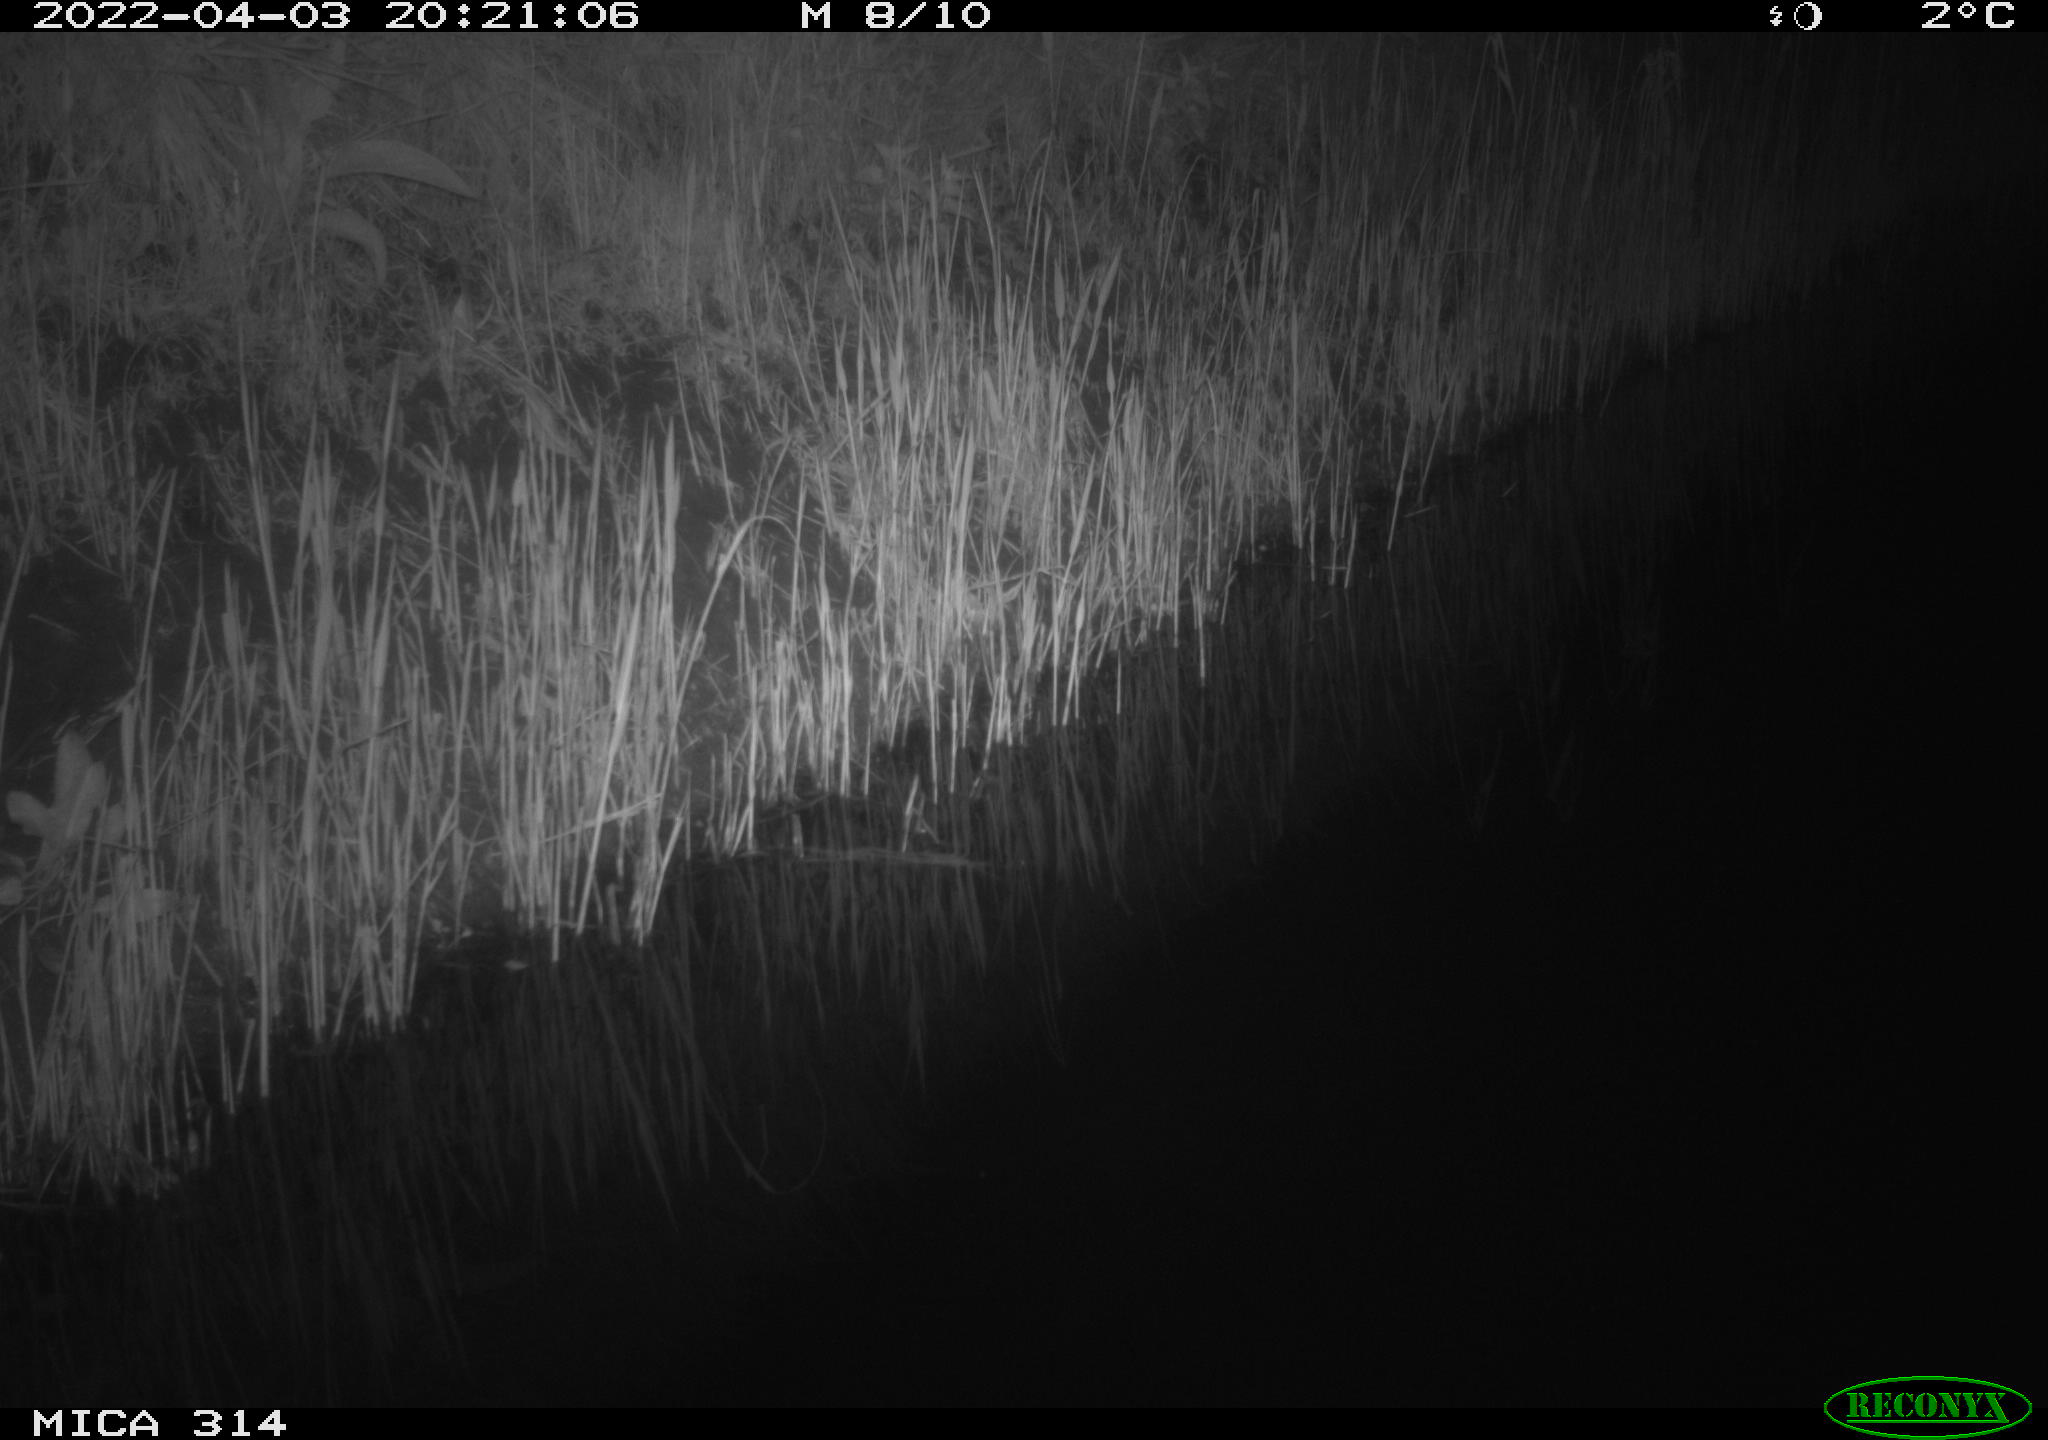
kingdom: Animalia
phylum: Chordata
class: Mammalia
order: Rodentia
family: Muridae
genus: Rattus
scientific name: Rattus norvegicus
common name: Brown rat
